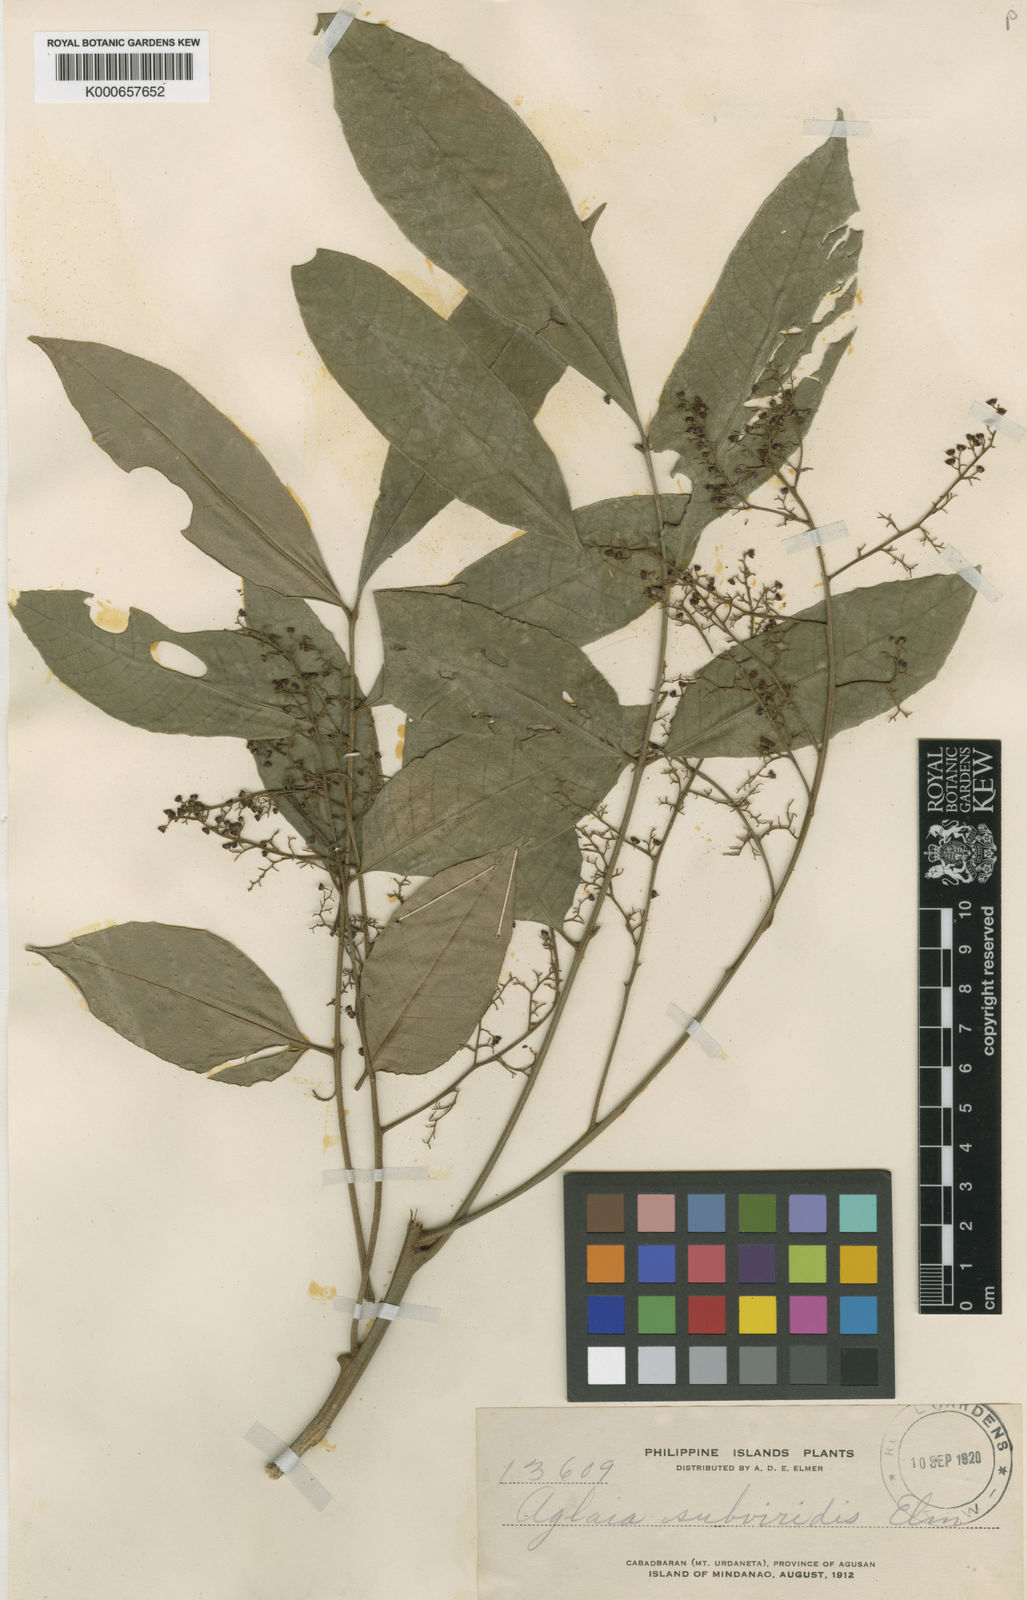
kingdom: Plantae
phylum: Tracheophyta
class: Magnoliopsida
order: Sapindales
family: Meliaceae
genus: Aglaia
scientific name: Aglaia rimosa
